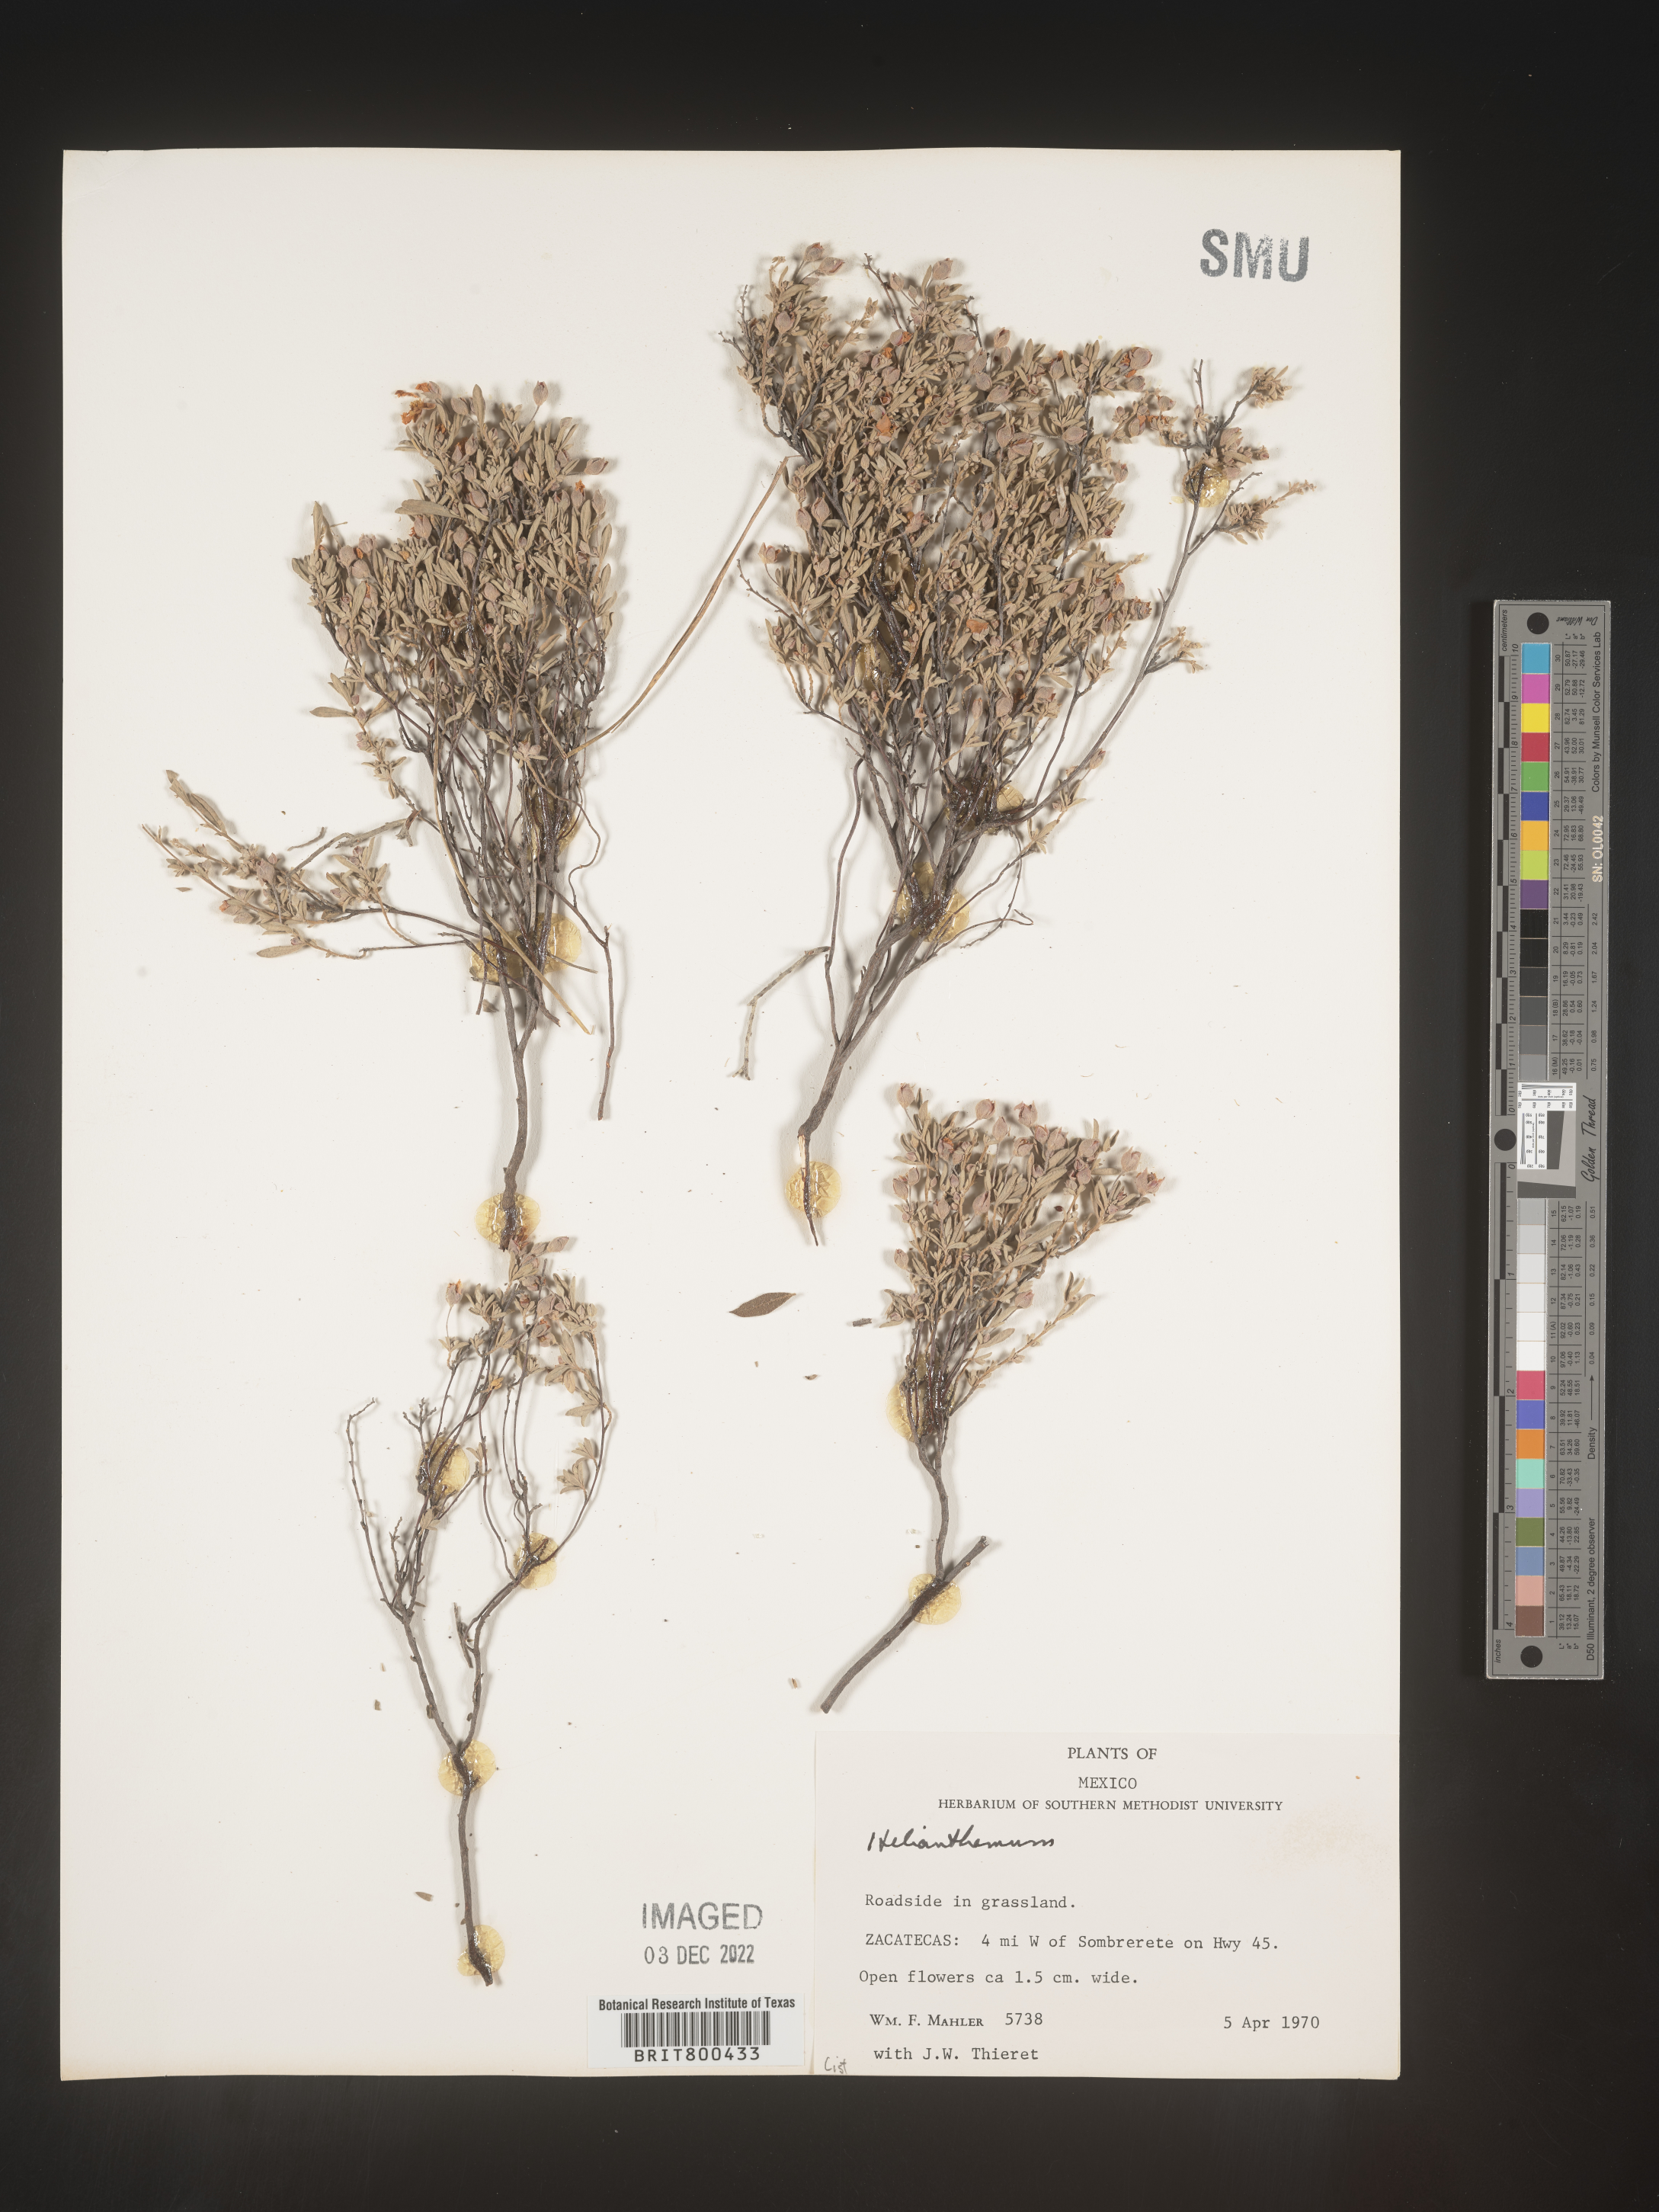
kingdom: Plantae
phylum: Tracheophyta
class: Magnoliopsida
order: Malvales
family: Cistaceae
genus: Helianthemum
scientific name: Helianthemum
